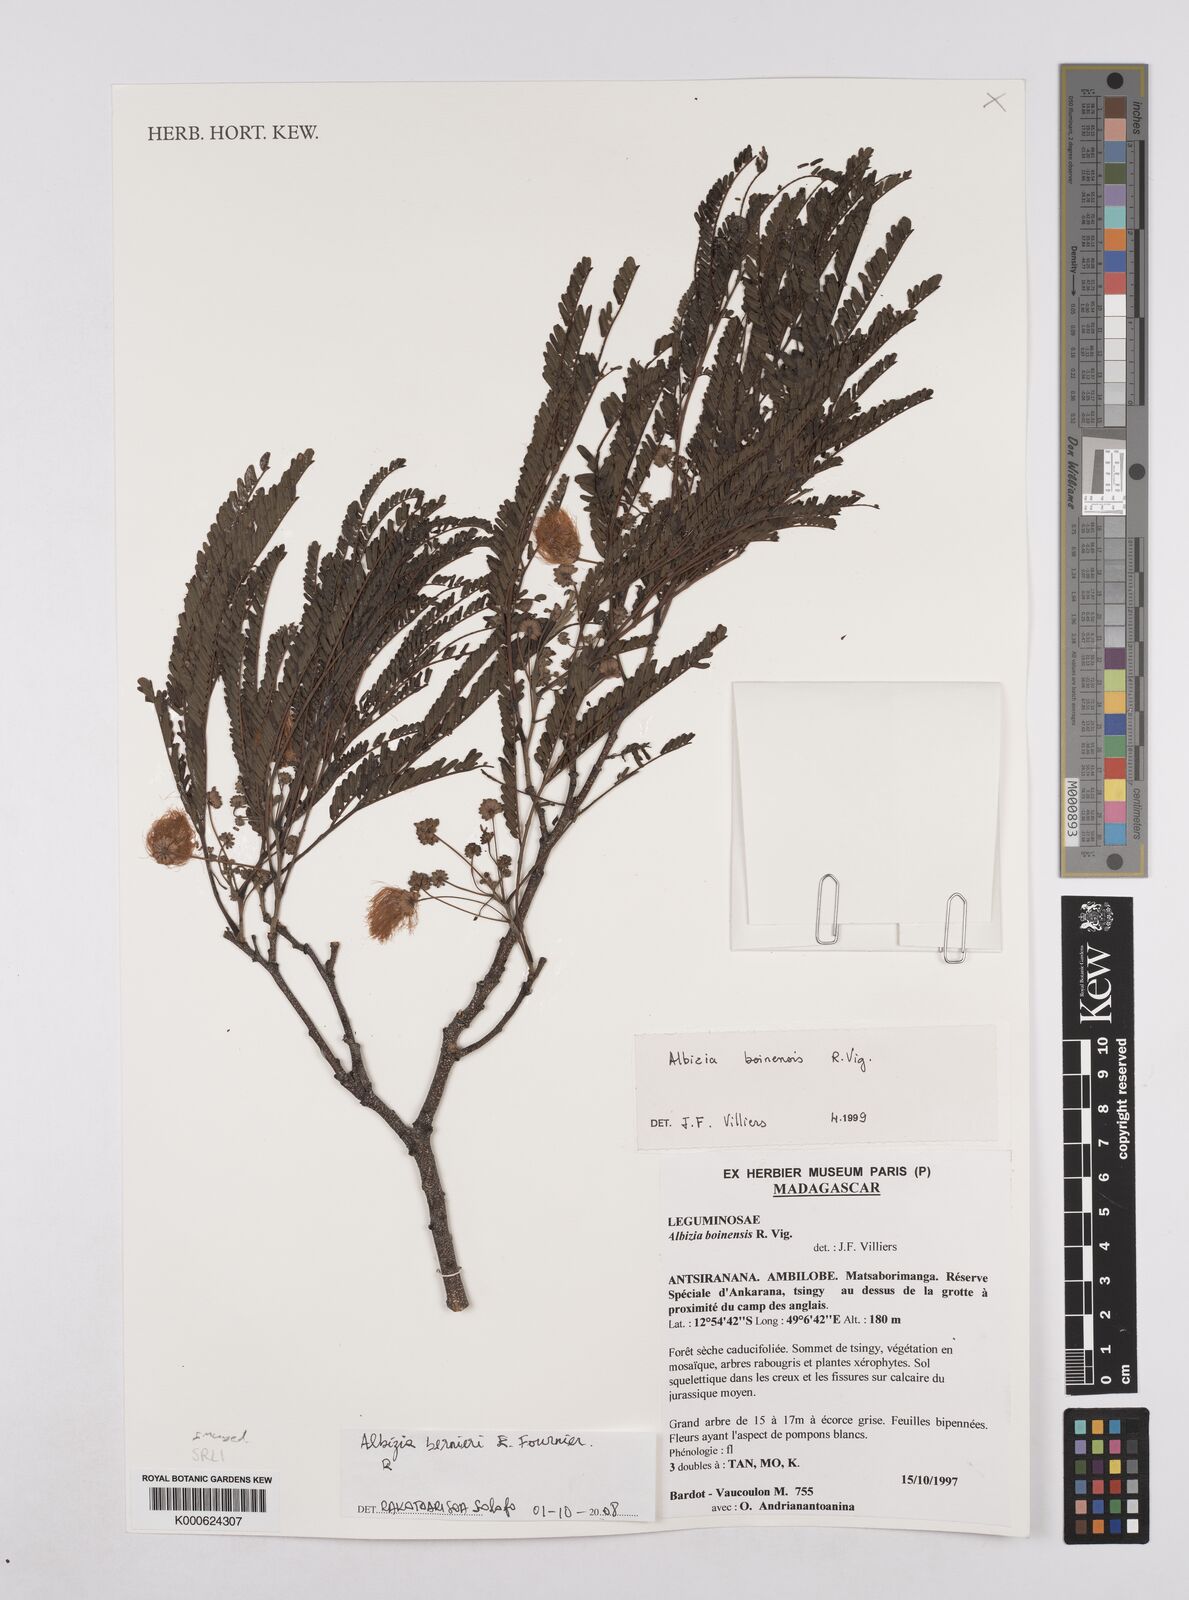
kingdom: Plantae
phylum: Tracheophyta
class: Magnoliopsida
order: Fabales
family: Fabaceae
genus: Albizia
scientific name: Albizia bernieri
